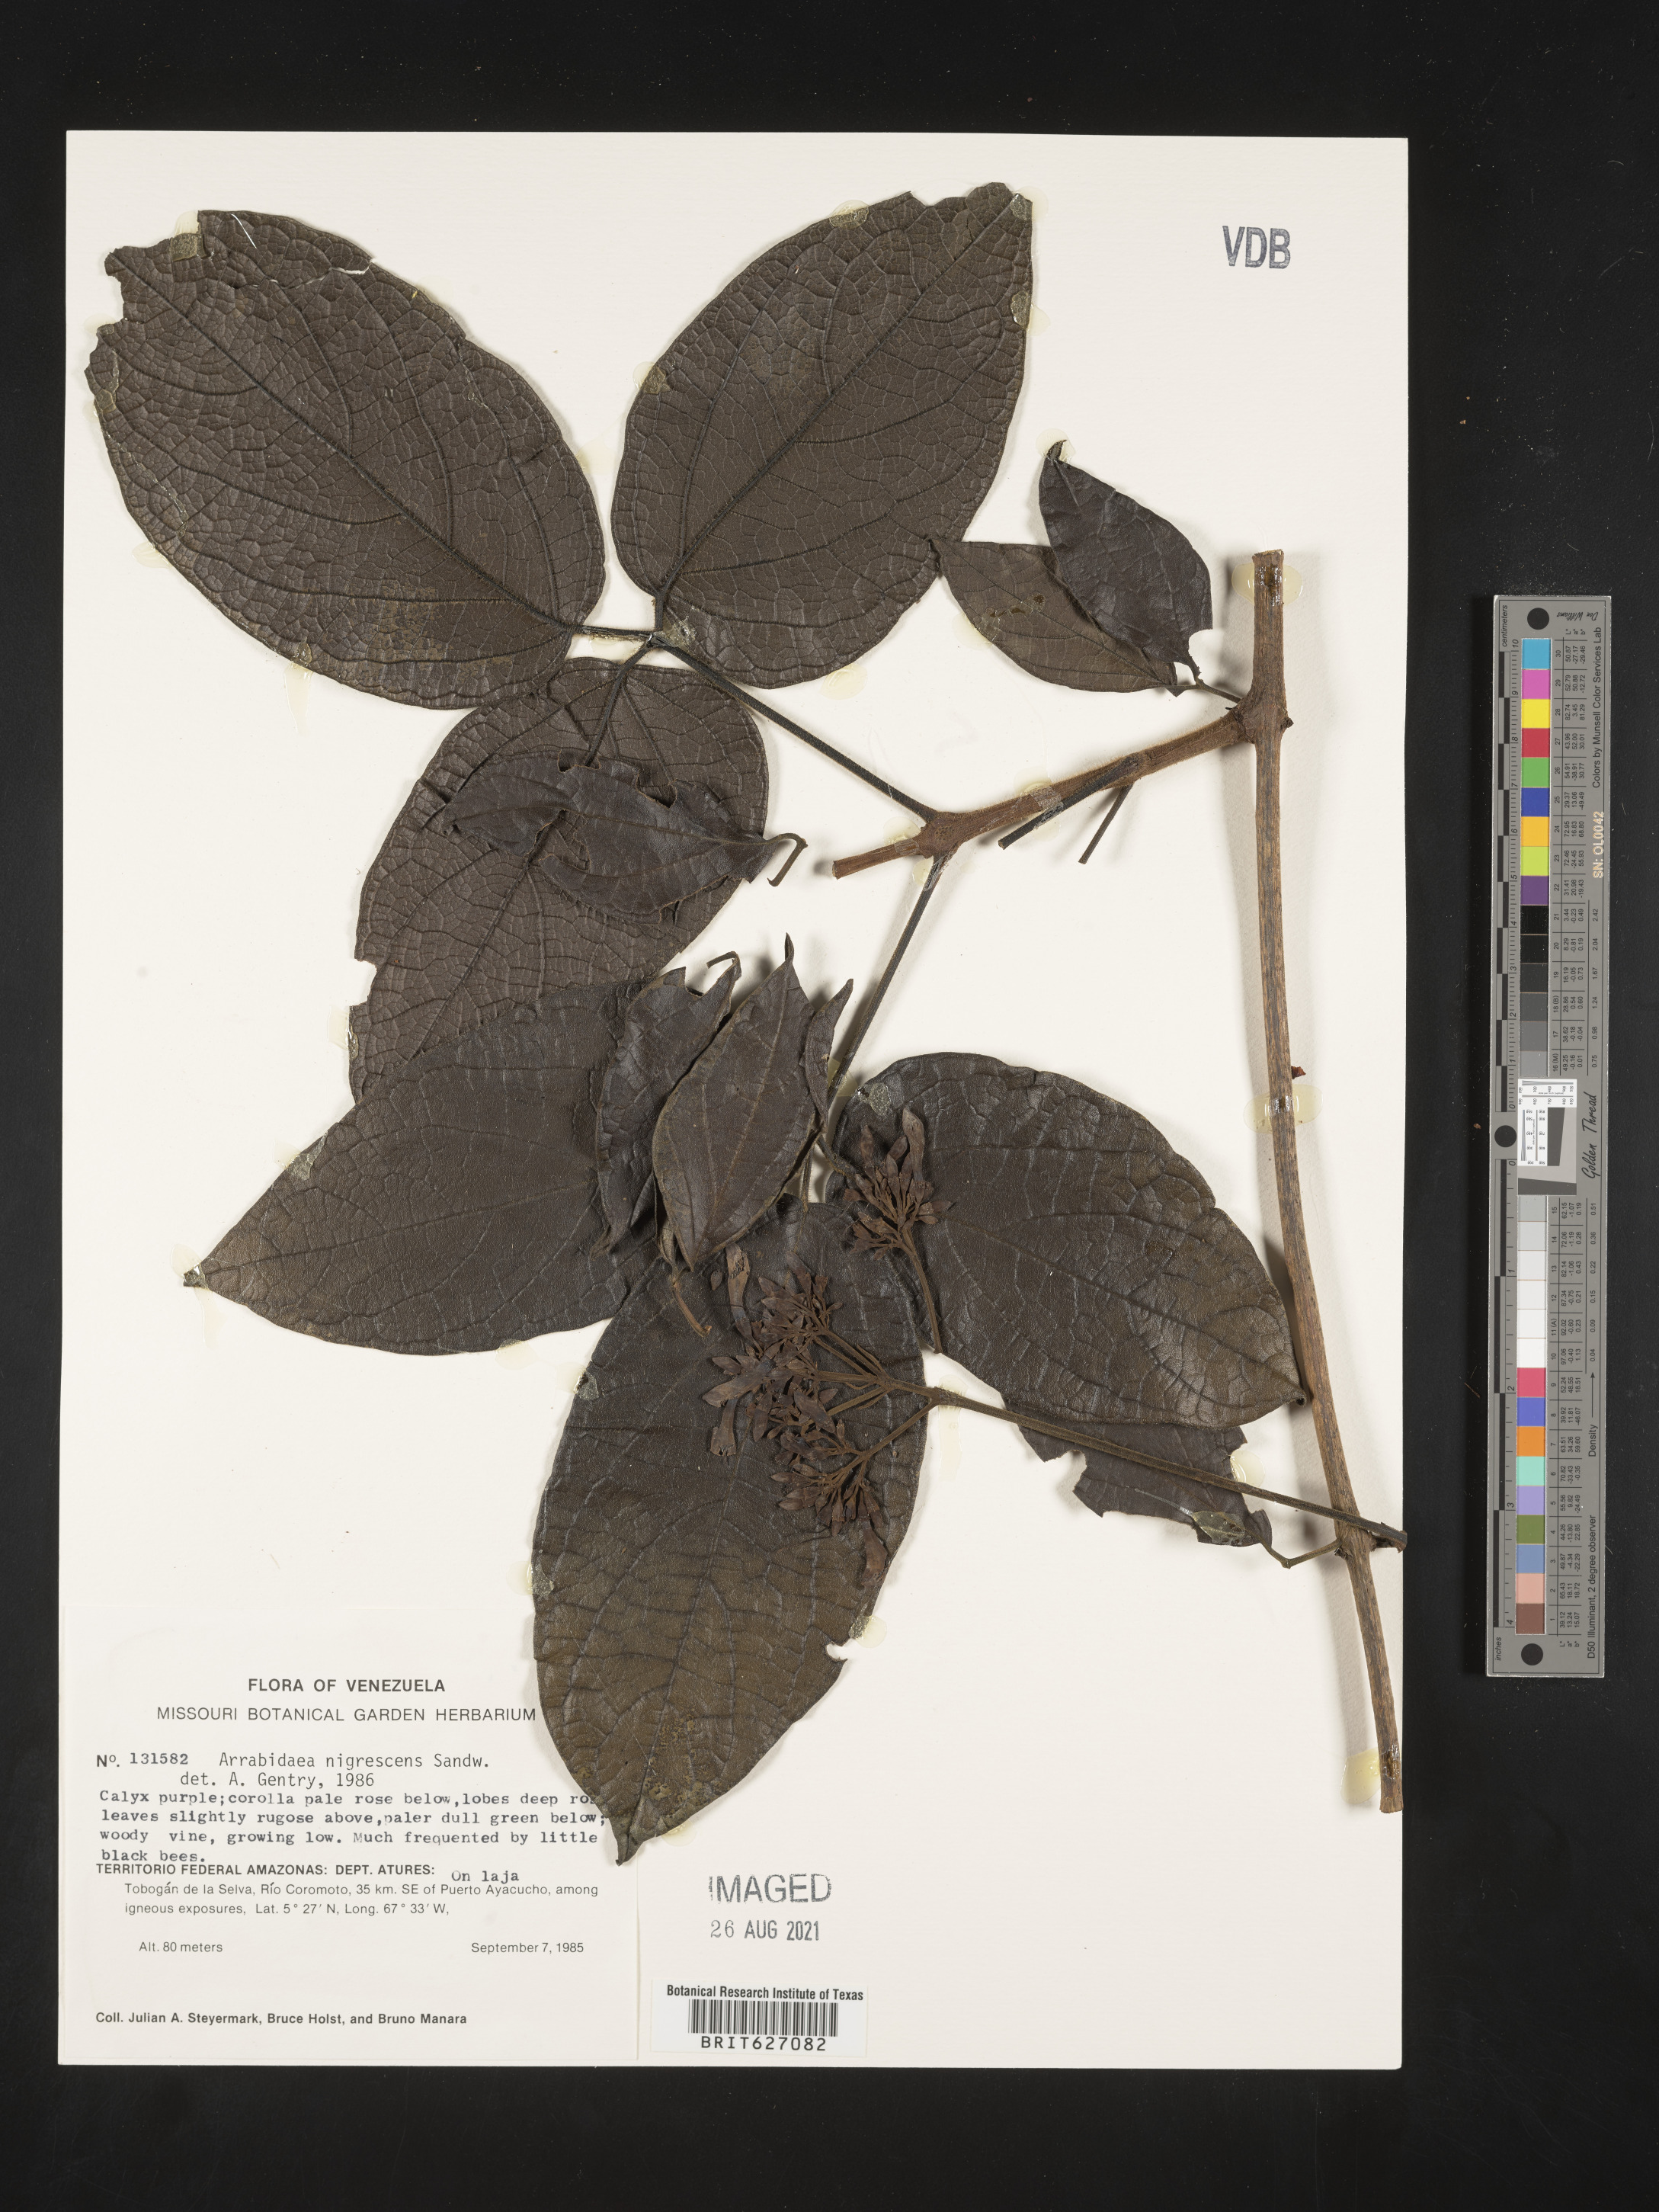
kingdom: Plantae
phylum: Tracheophyta
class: Magnoliopsida
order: Lamiales
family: Bignoniaceae
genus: Fridericia
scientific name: Fridericia nigrescens
